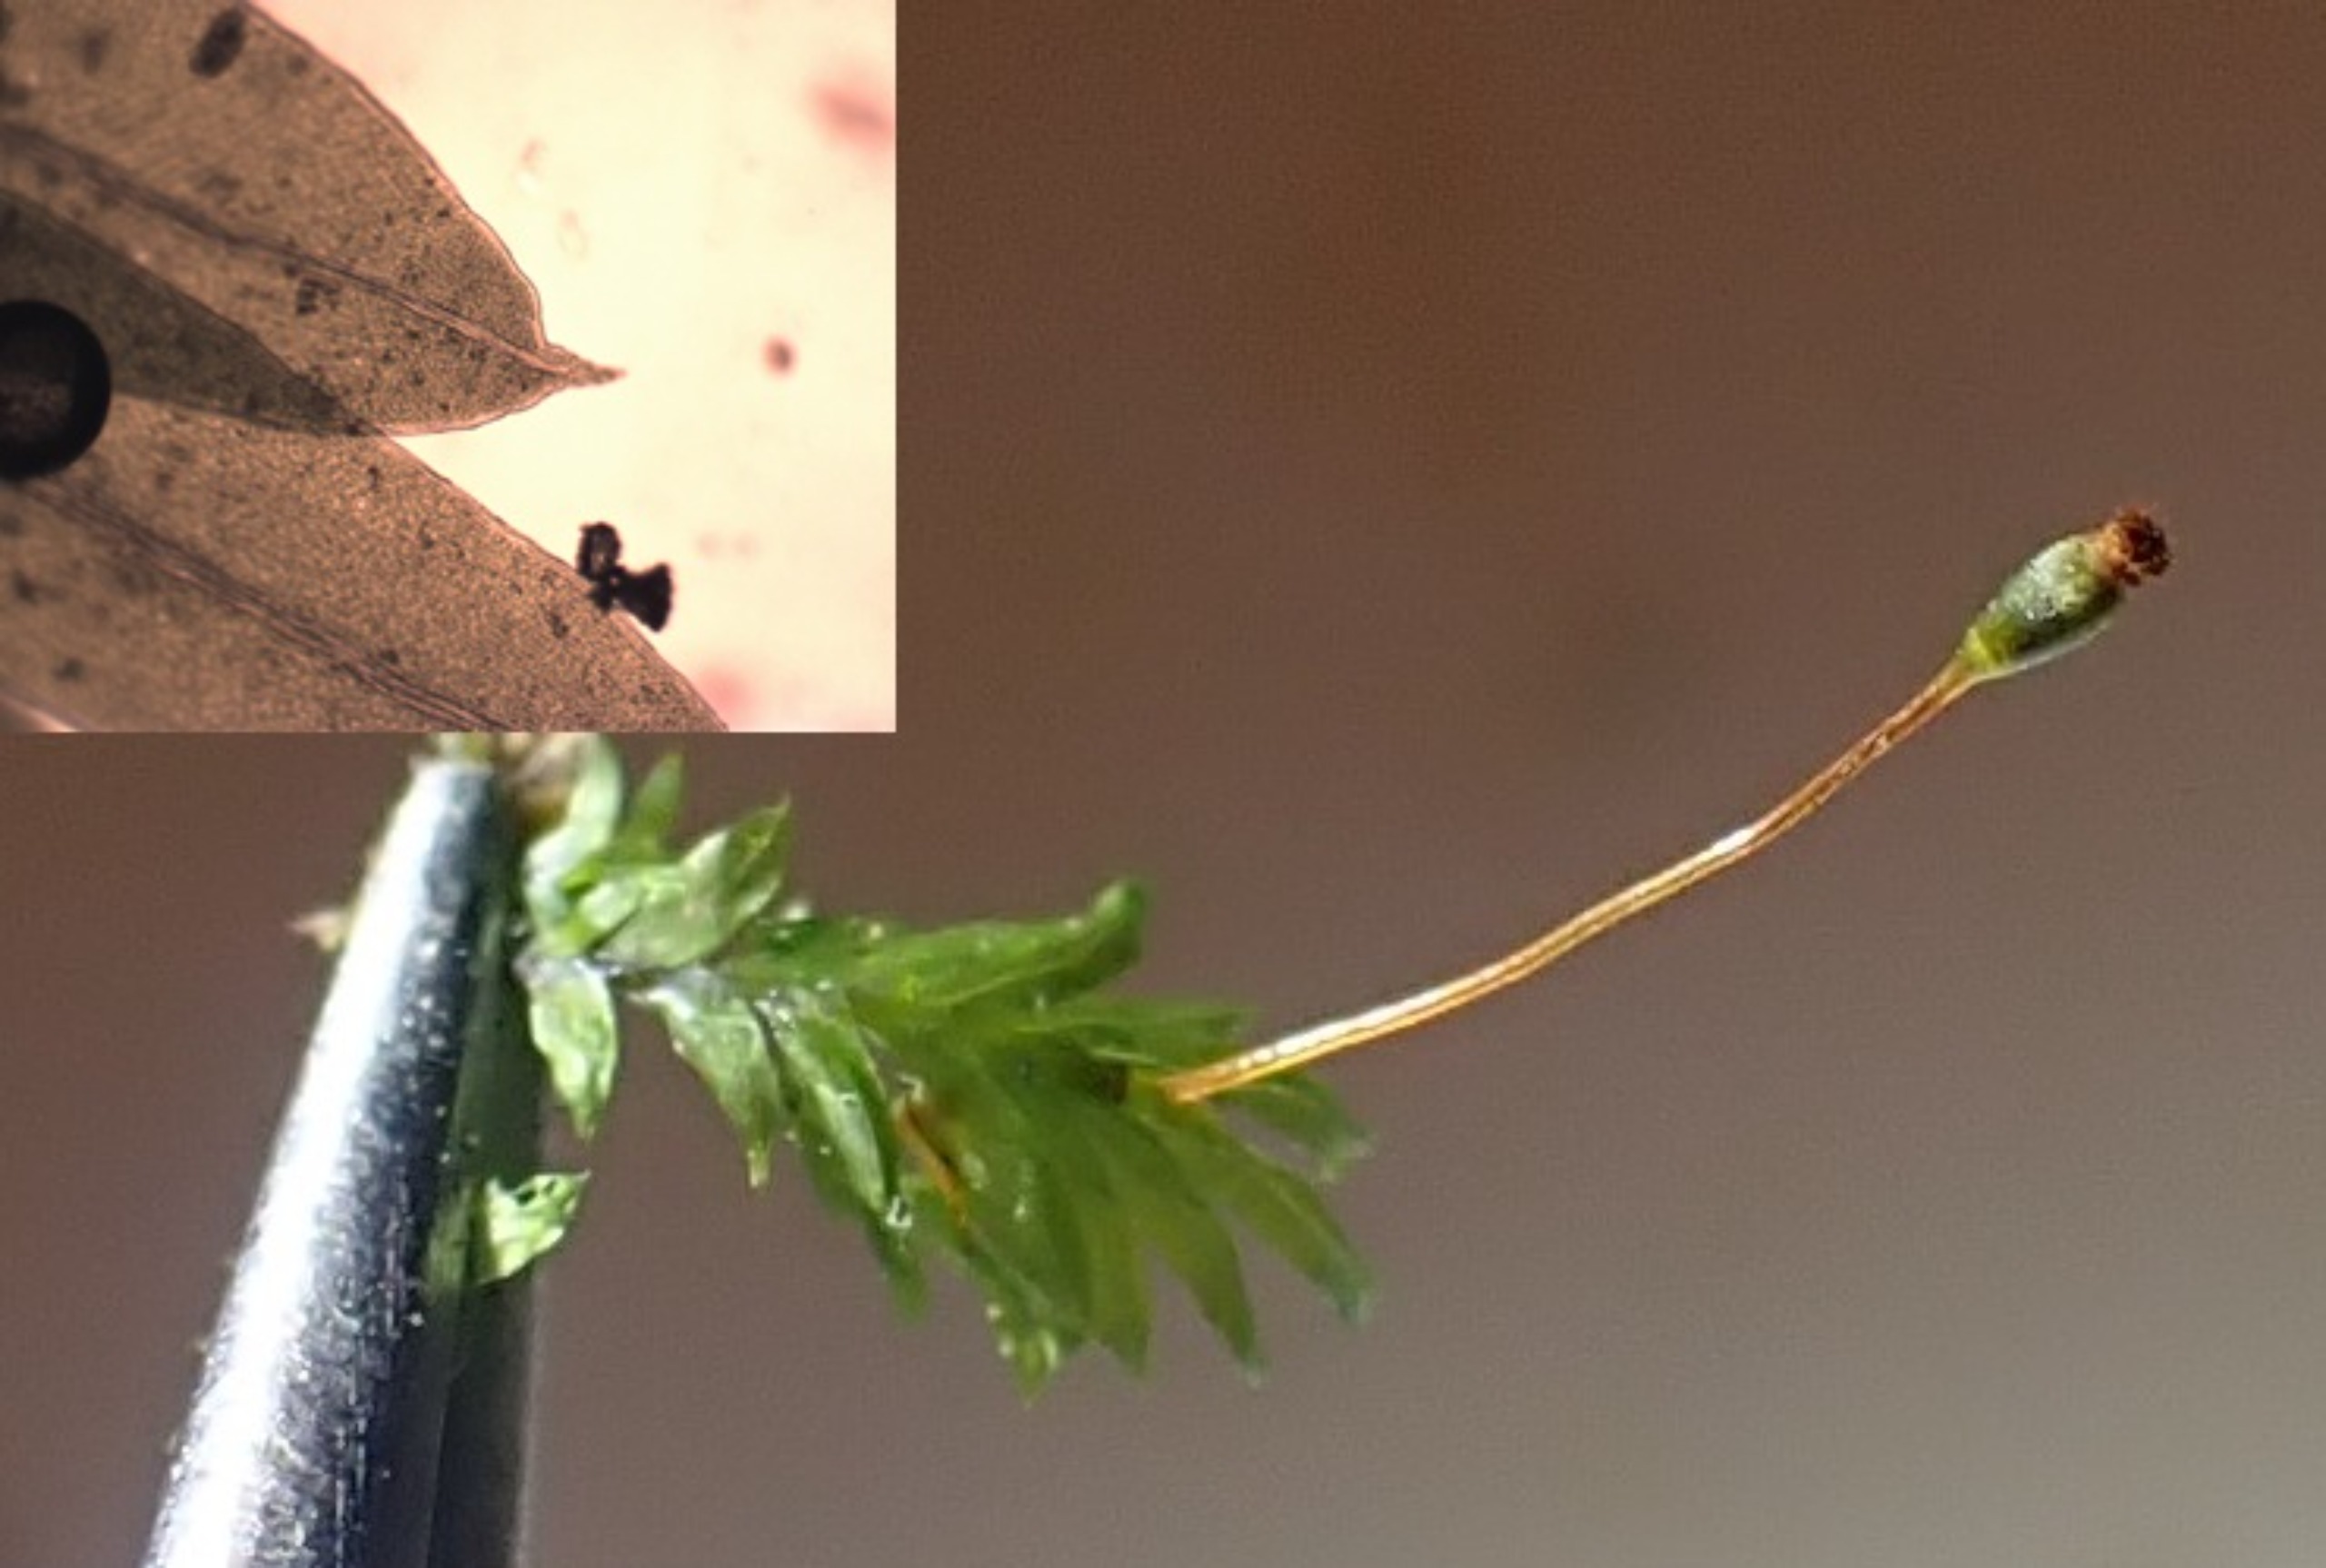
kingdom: Plantae
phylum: Bryophyta
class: Bryopsida
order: Dicranales
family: Fissidentaceae
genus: Fissidens
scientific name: Fissidens bryoides
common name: Top-rademos
